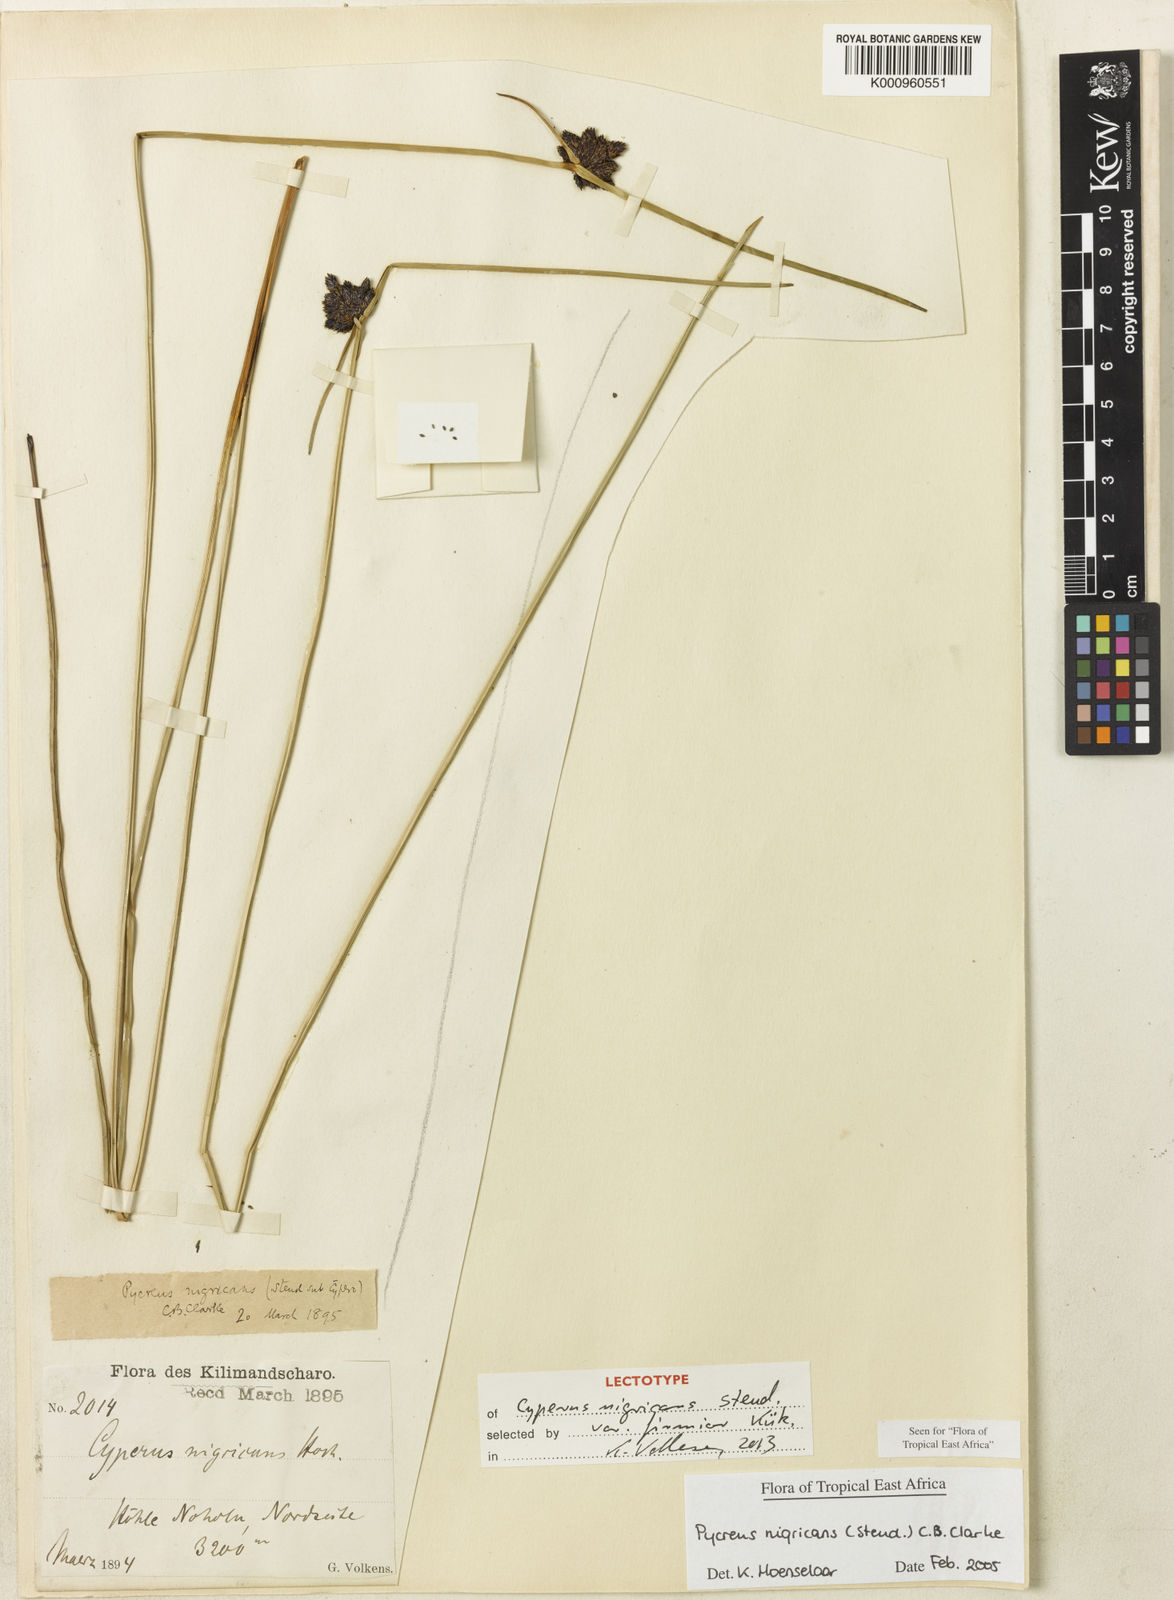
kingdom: Plantae
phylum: Tracheophyta
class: Liliopsida
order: Poales
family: Cyperaceae
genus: Cyperus
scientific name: Cyperus nigricans
